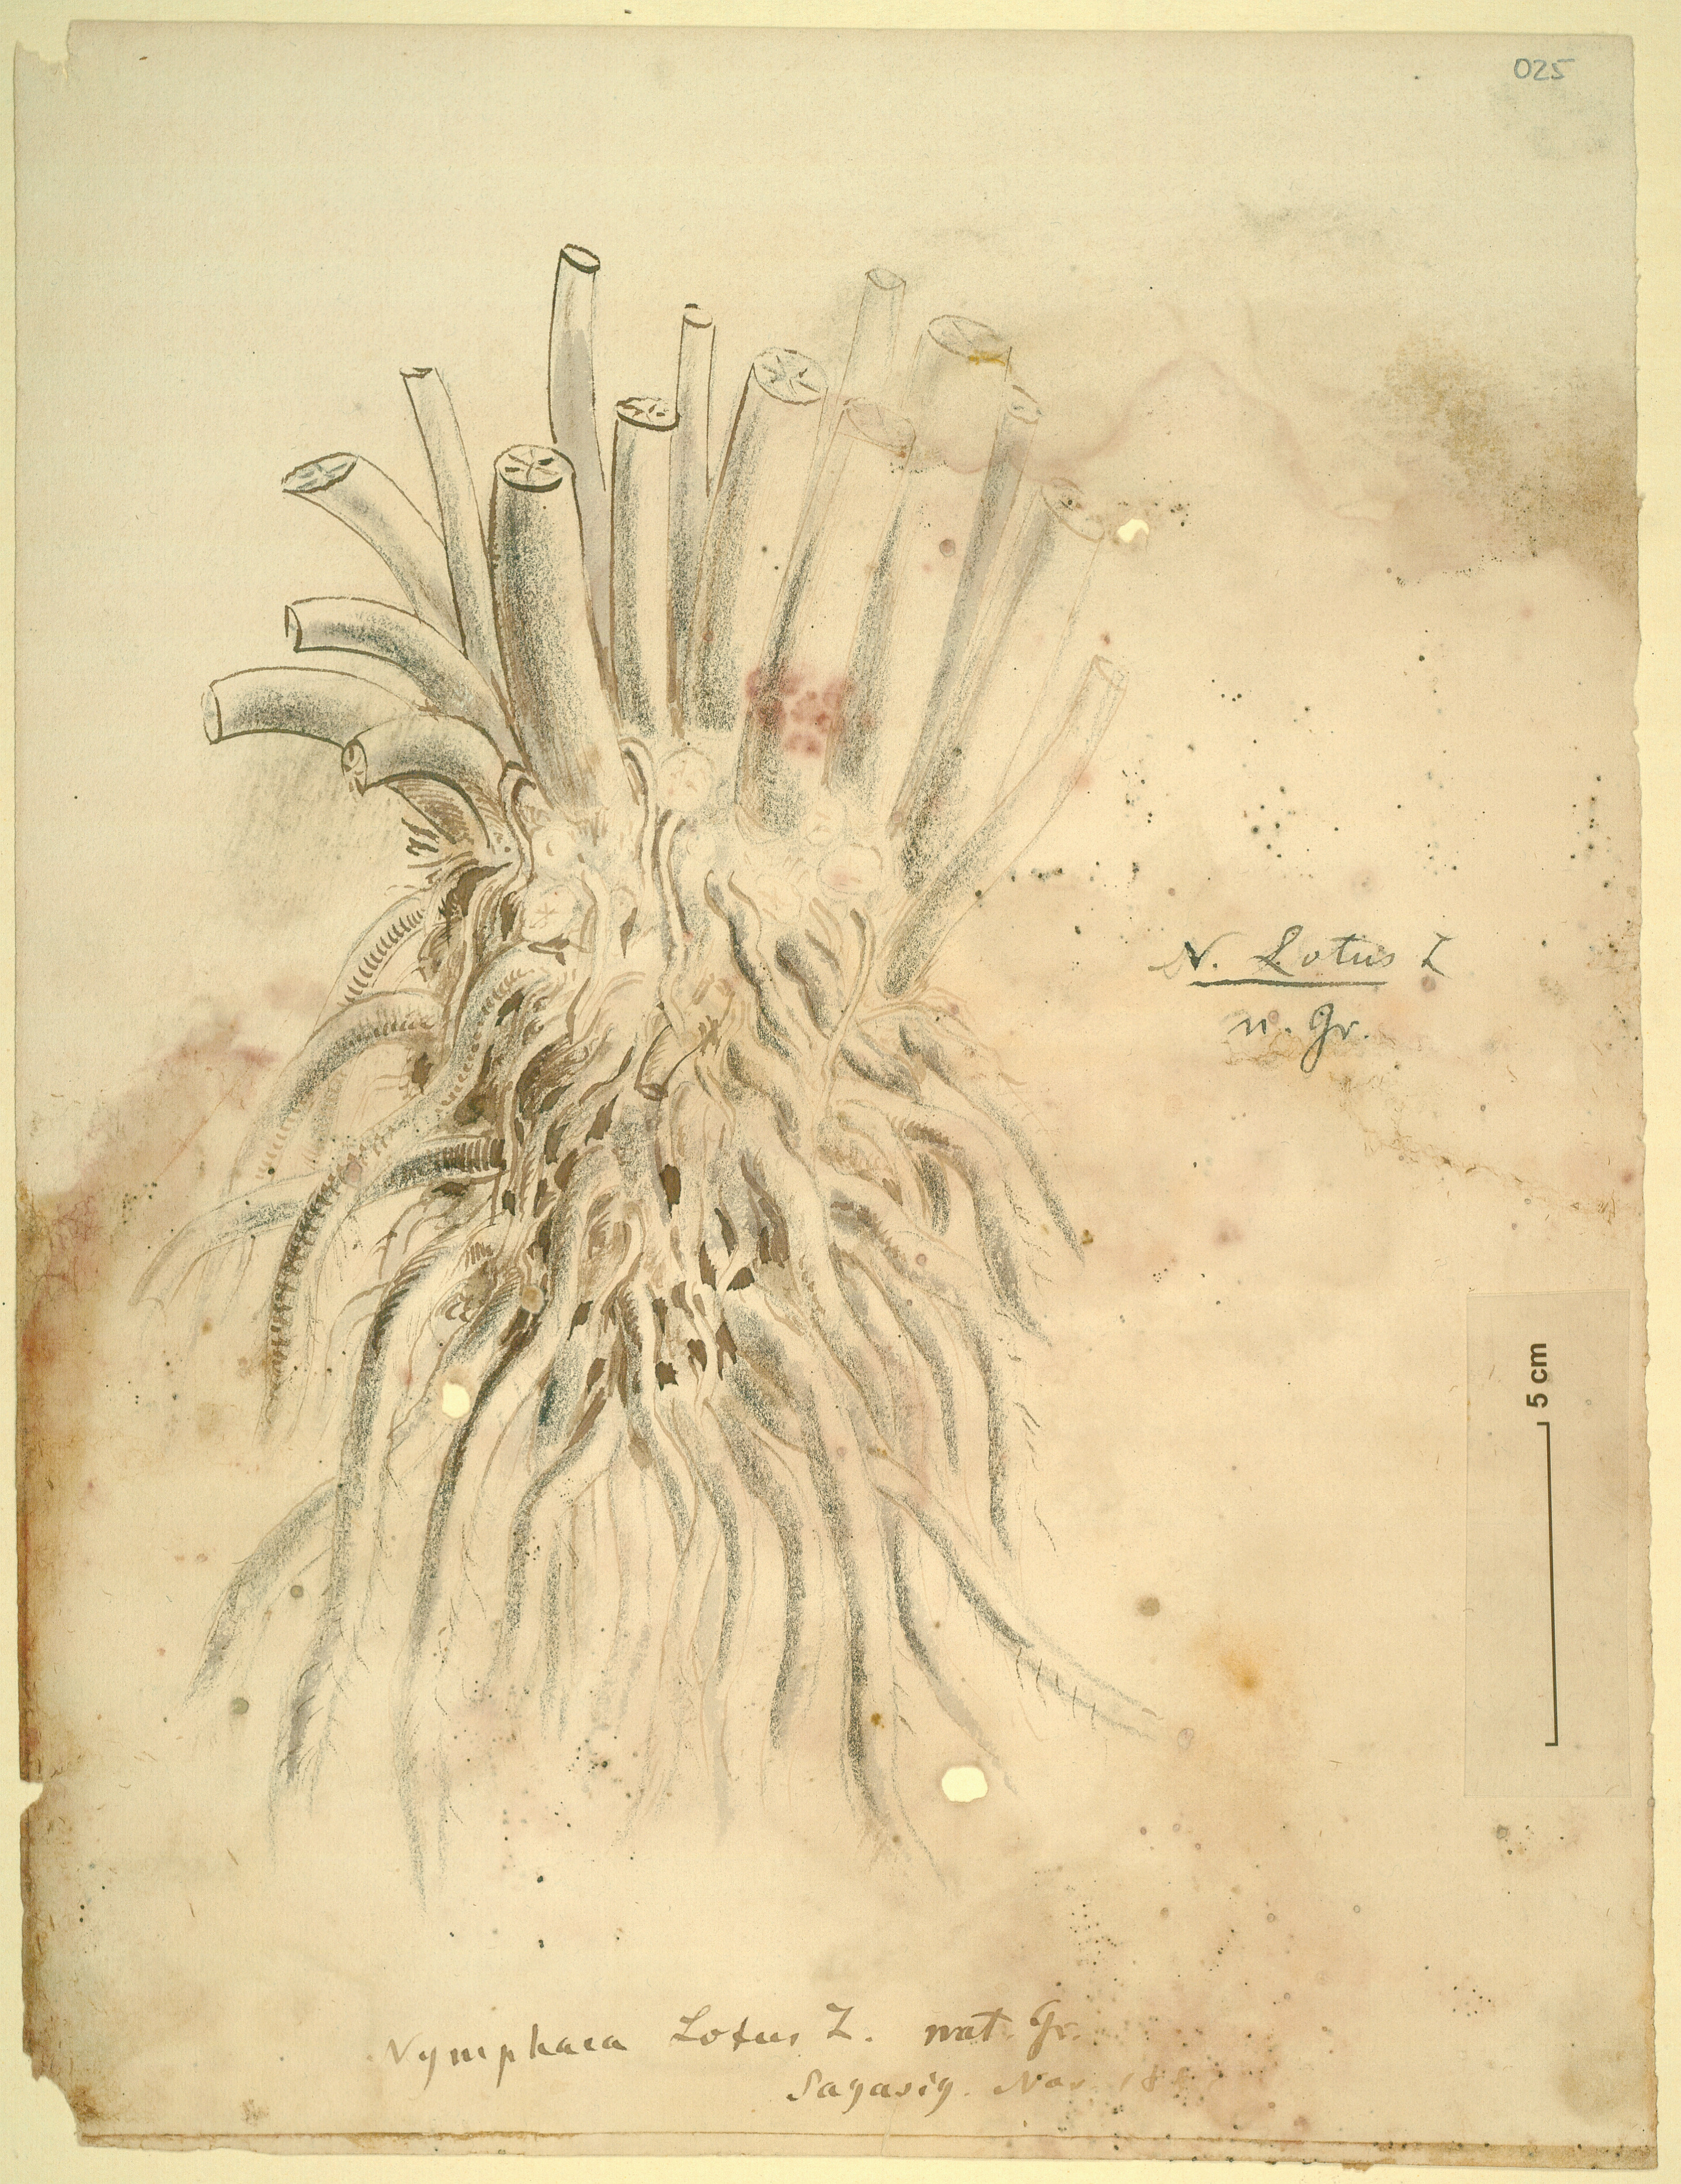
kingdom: Plantae
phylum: Tracheophyta
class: Magnoliopsida
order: Nymphaeales
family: Nymphaeaceae
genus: Nymphaea
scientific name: Nymphaea lotus
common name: White egyptian lotus
